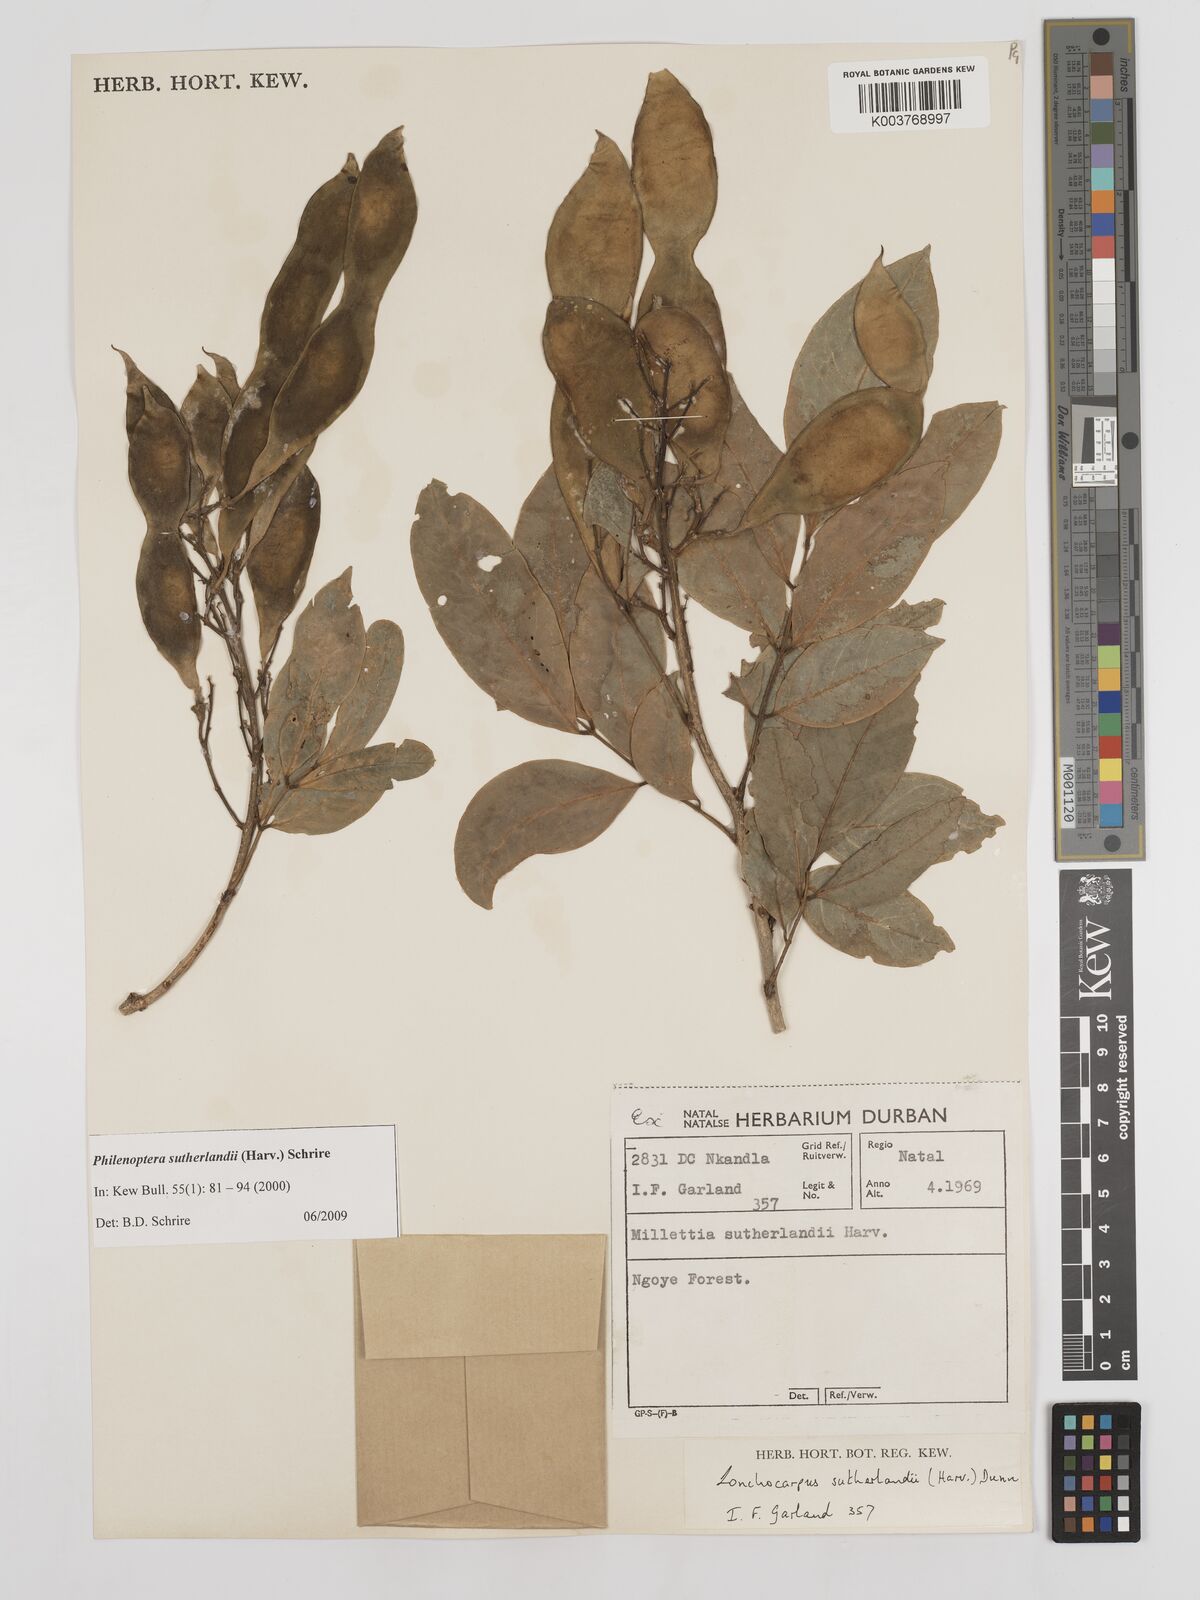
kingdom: Plantae
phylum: Tracheophyta
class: Magnoliopsida
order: Fabales
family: Fabaceae
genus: Philenoptera
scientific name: Philenoptera sutherlandii
